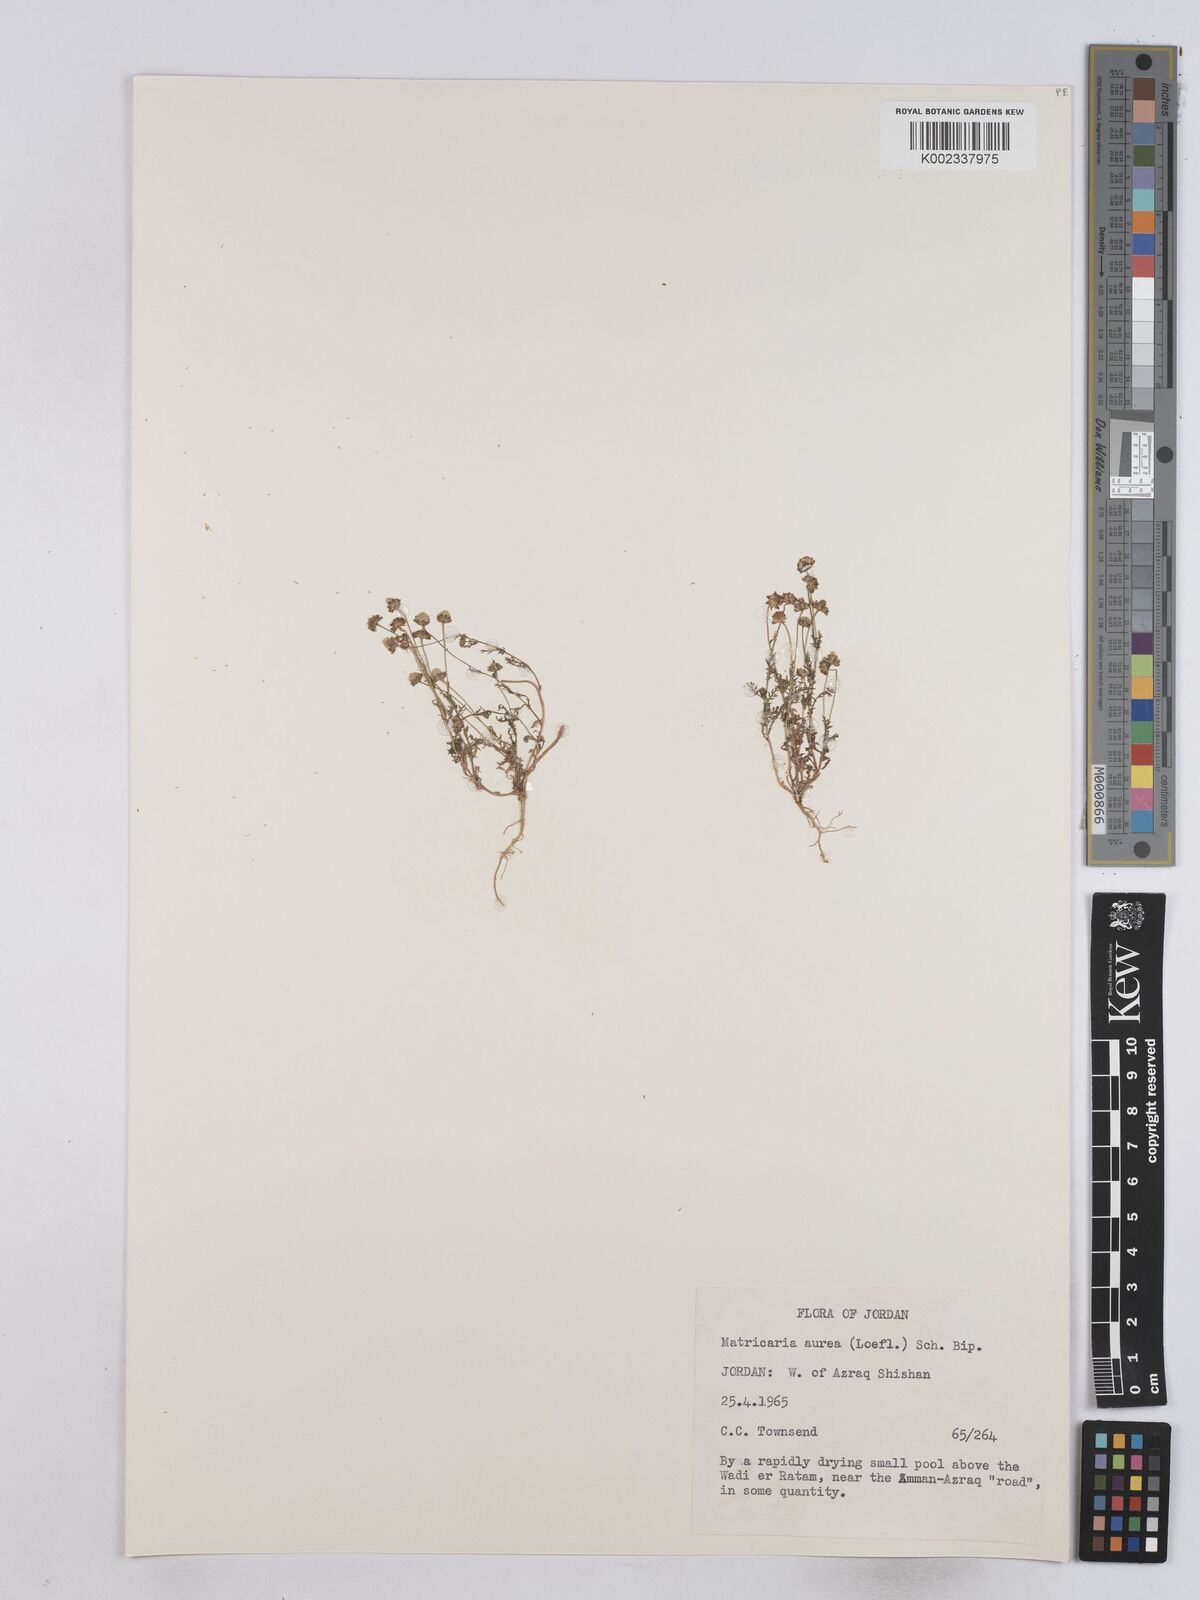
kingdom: Plantae
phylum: Tracheophyta
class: Magnoliopsida
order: Asterales
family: Asteraceae
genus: Matricaria
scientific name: Matricaria aurea
